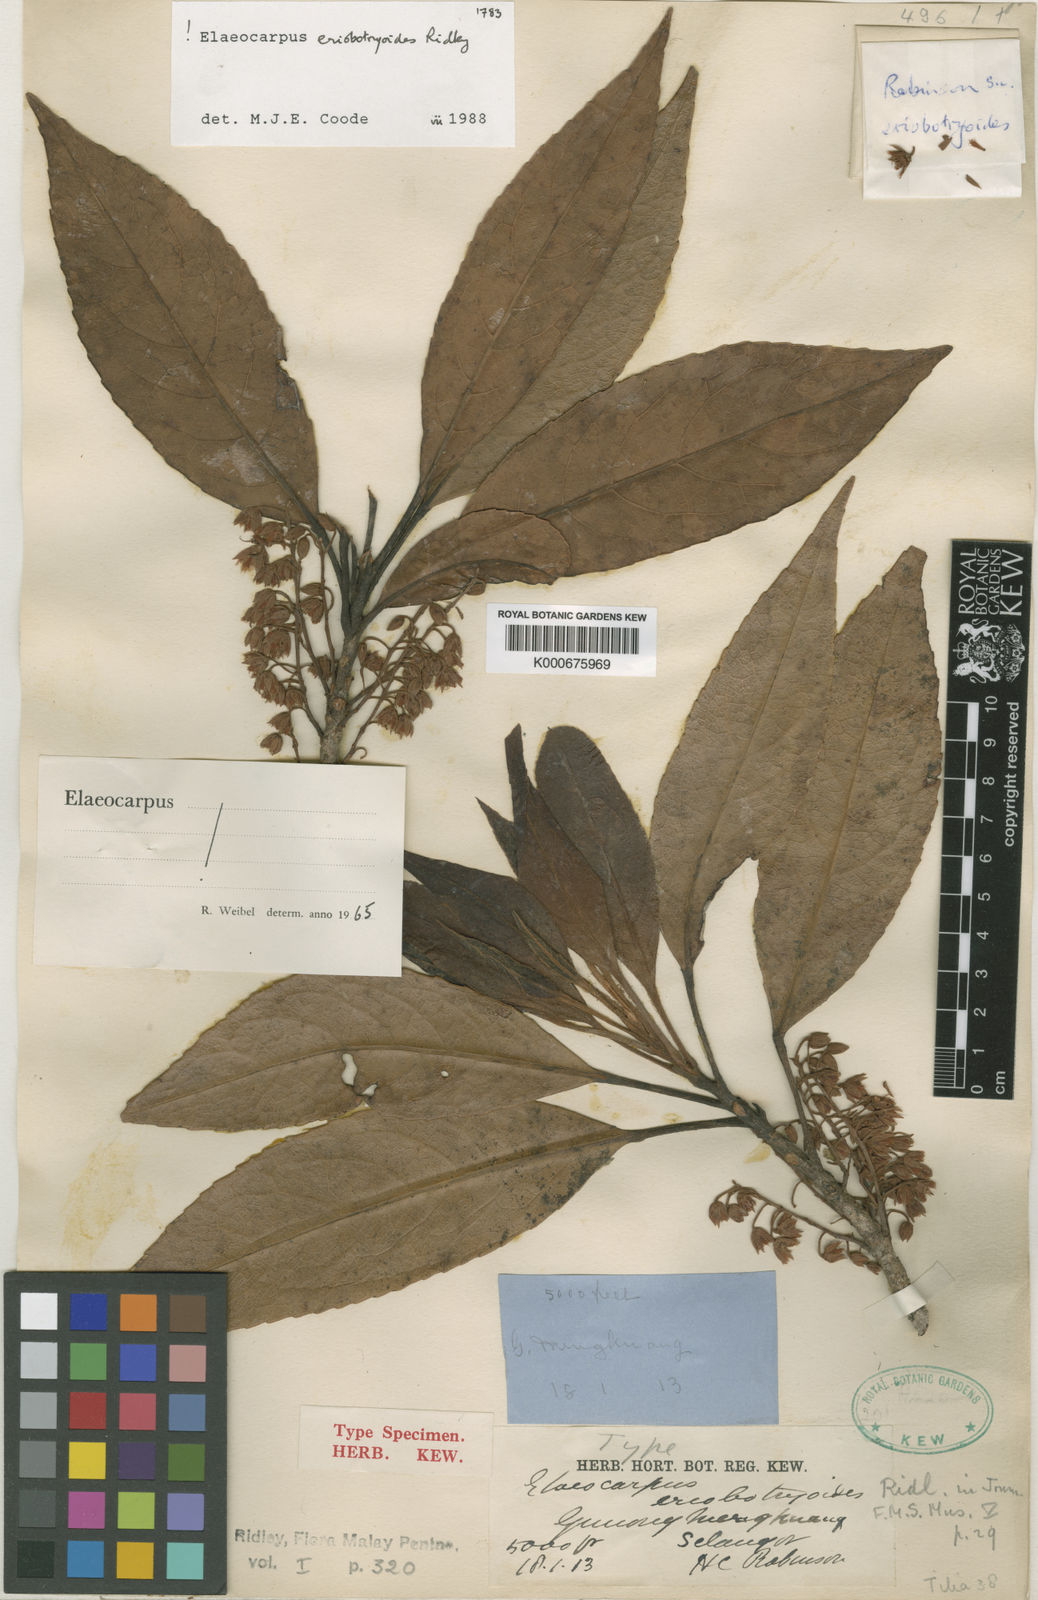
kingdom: Plantae
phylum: Tracheophyta
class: Magnoliopsida
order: Oxalidales
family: Elaeocarpaceae
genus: Elaeocarpus
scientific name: Elaeocarpus eriobotryoides
